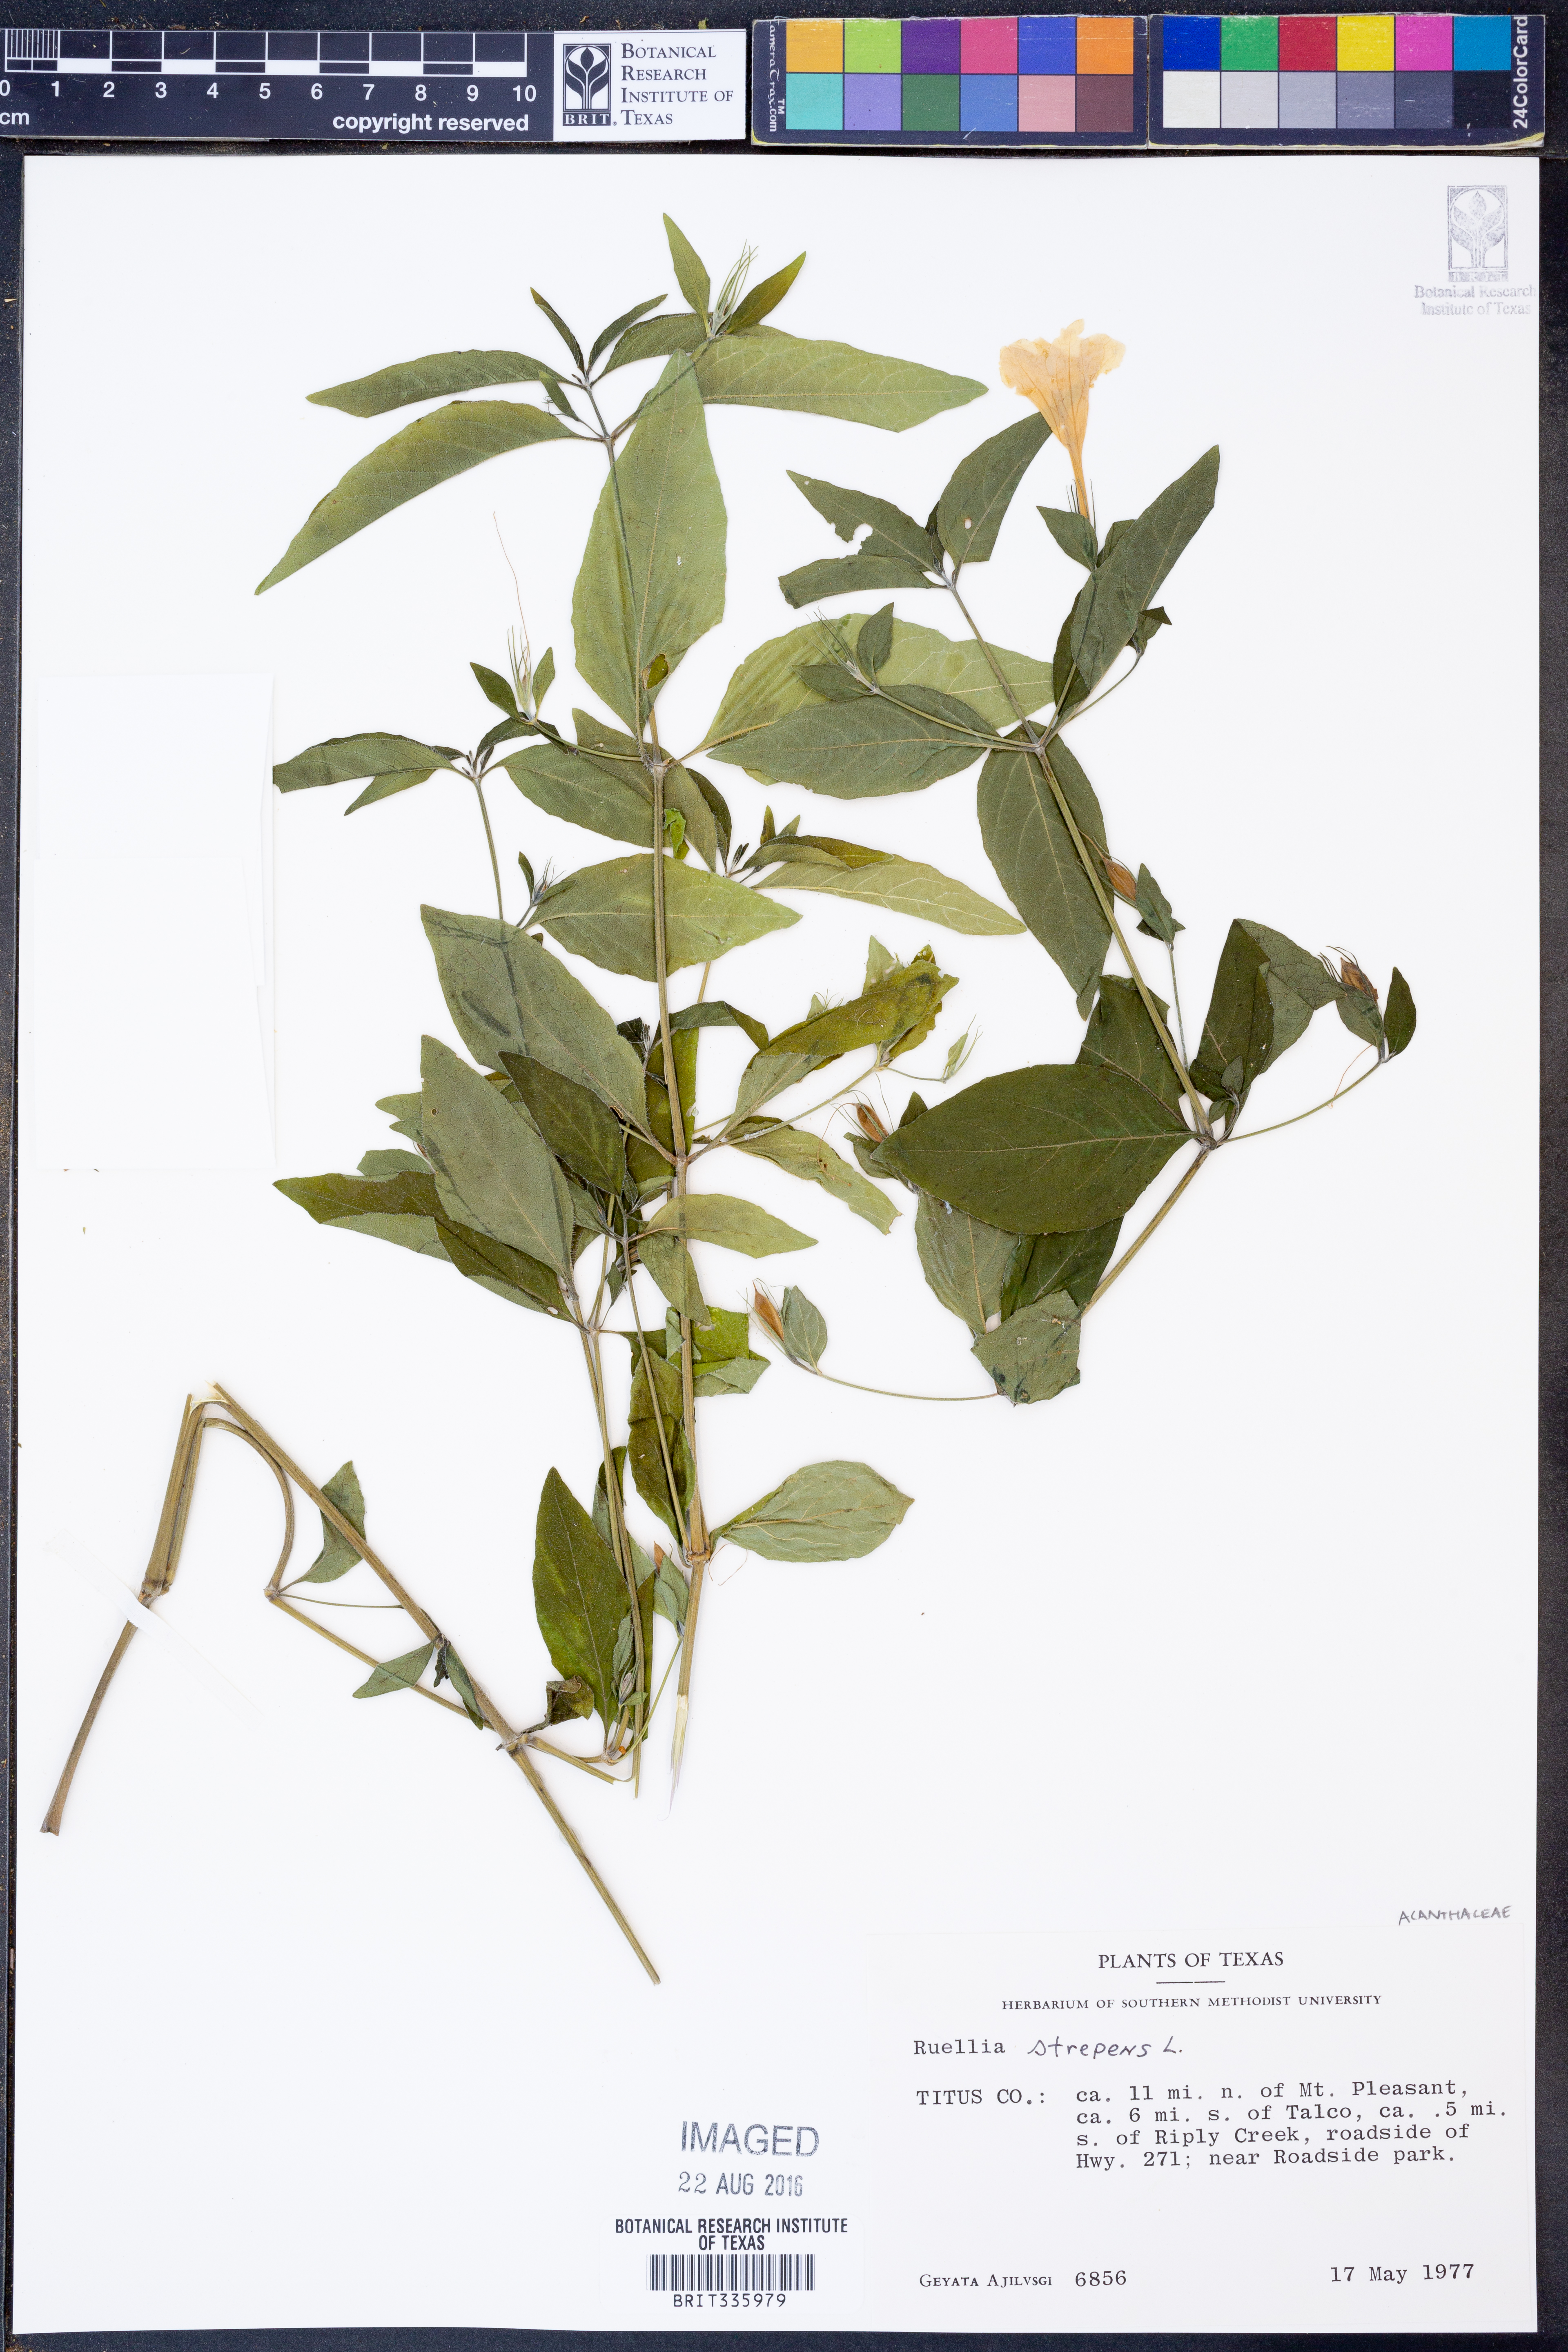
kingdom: Plantae
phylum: Tracheophyta
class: Magnoliopsida
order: Lamiales
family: Acanthaceae
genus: Ruellia
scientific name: Ruellia strepens
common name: Limestone wild petunia
